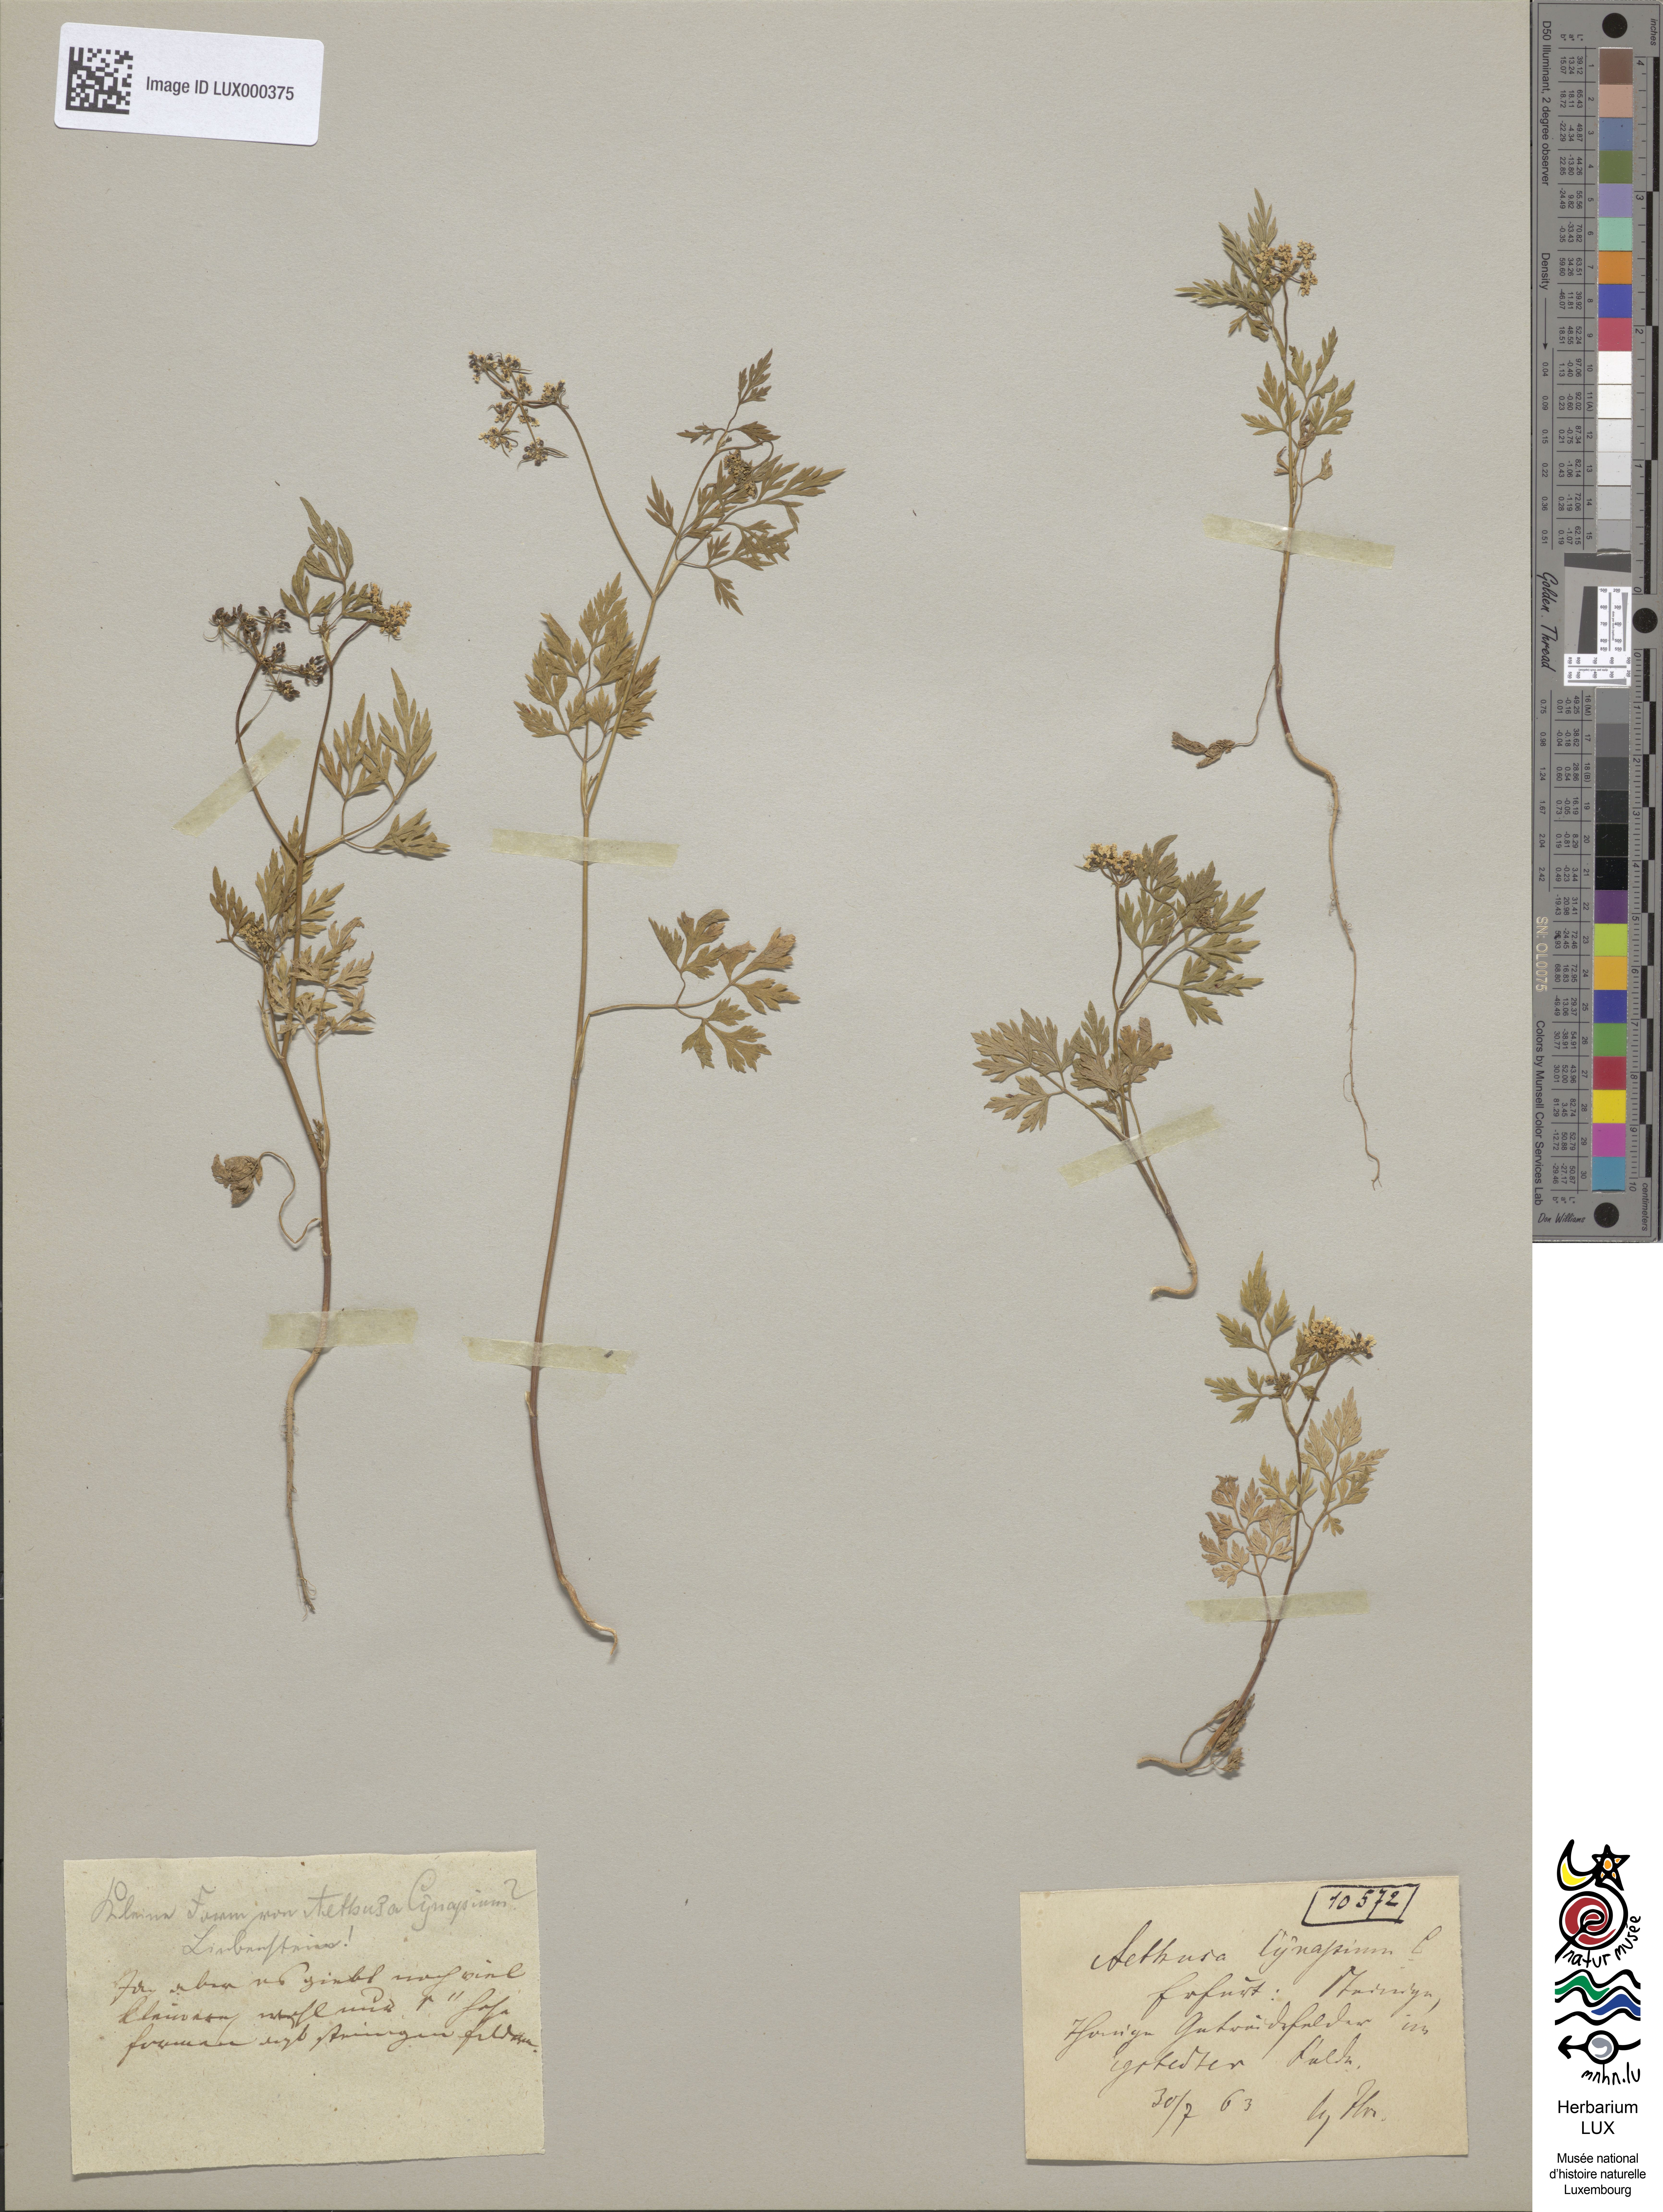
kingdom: Plantae
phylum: Tracheophyta
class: Magnoliopsida
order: Apiales
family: Apiaceae
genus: Aethusa
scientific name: Aethusa cynapium
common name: Fool's parsley
